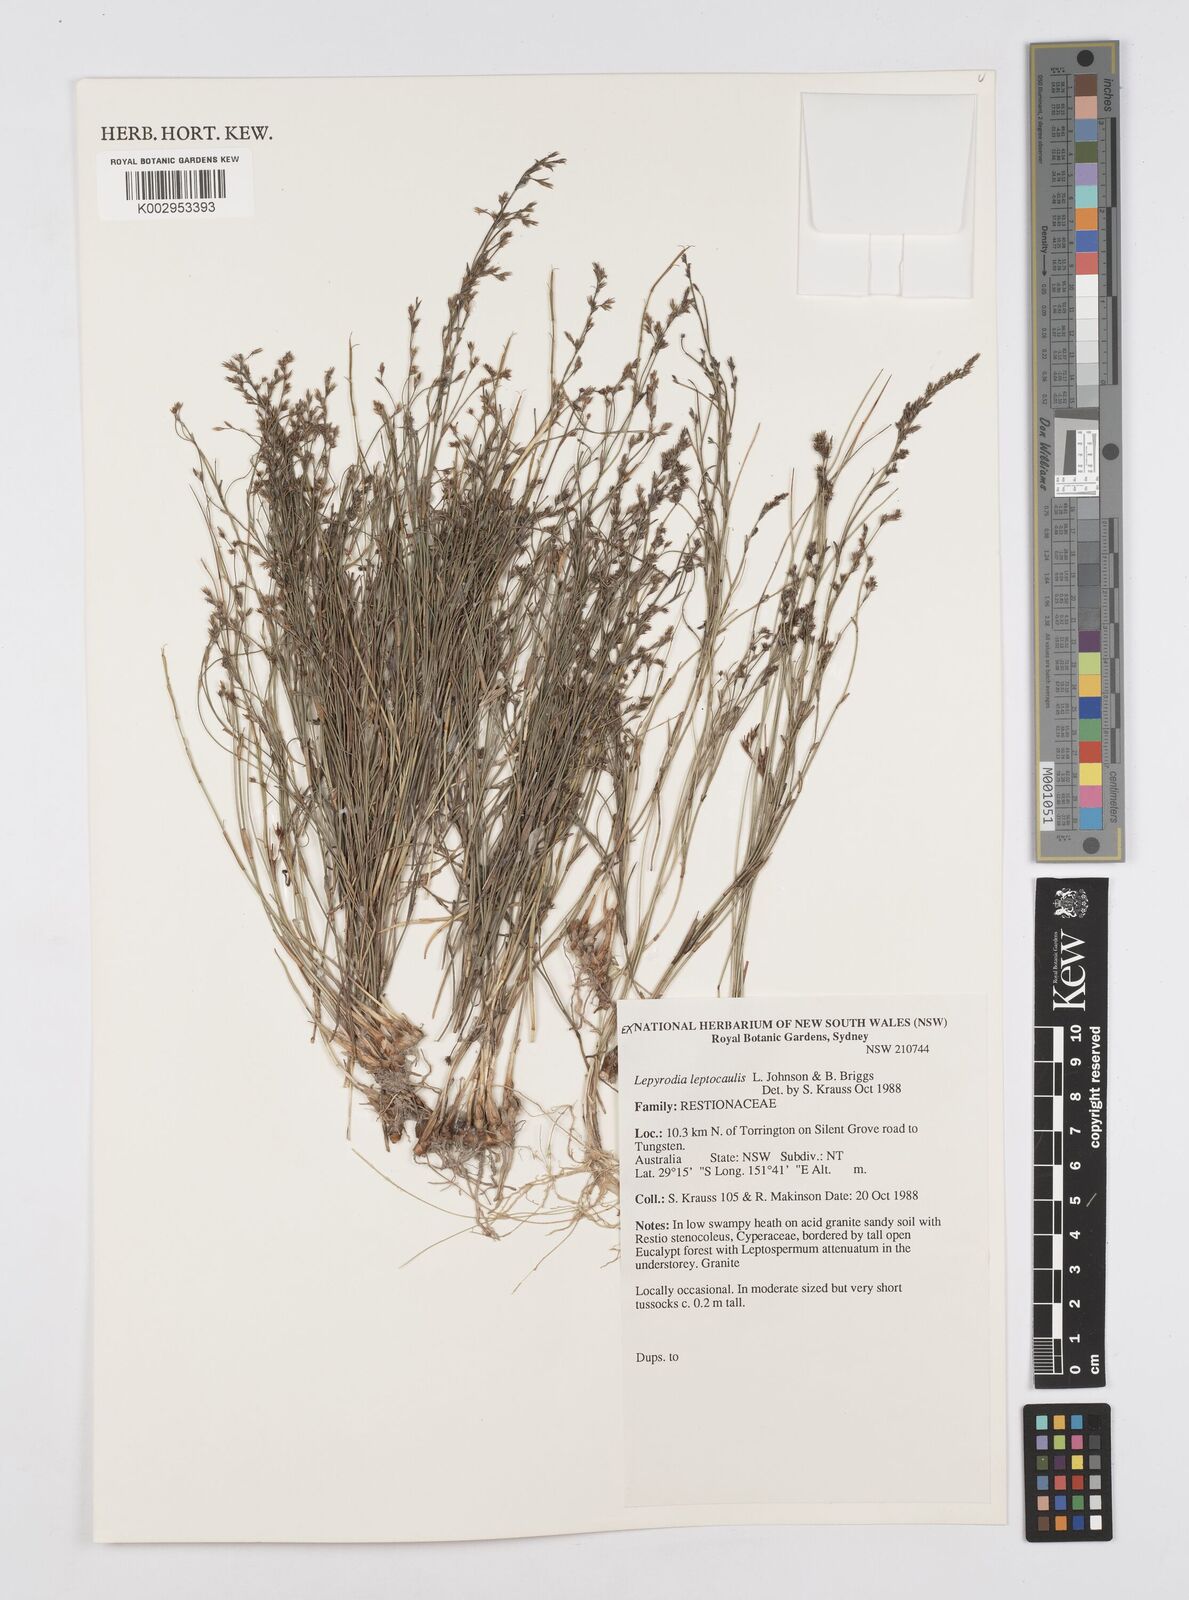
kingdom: Plantae
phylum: Tracheophyta
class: Liliopsida
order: Poales
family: Restionaceae
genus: Lepyrodia
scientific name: Lepyrodia leptocaulis
